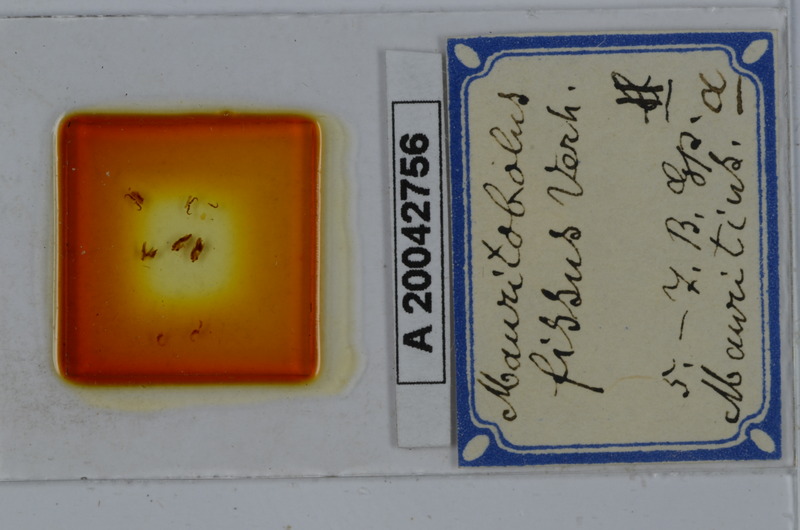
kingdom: Animalia
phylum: Arthropoda
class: Diplopoda
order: Spirobolida
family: Spirobolellidae
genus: Mauritobolus
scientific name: Mauritobolus fissus
